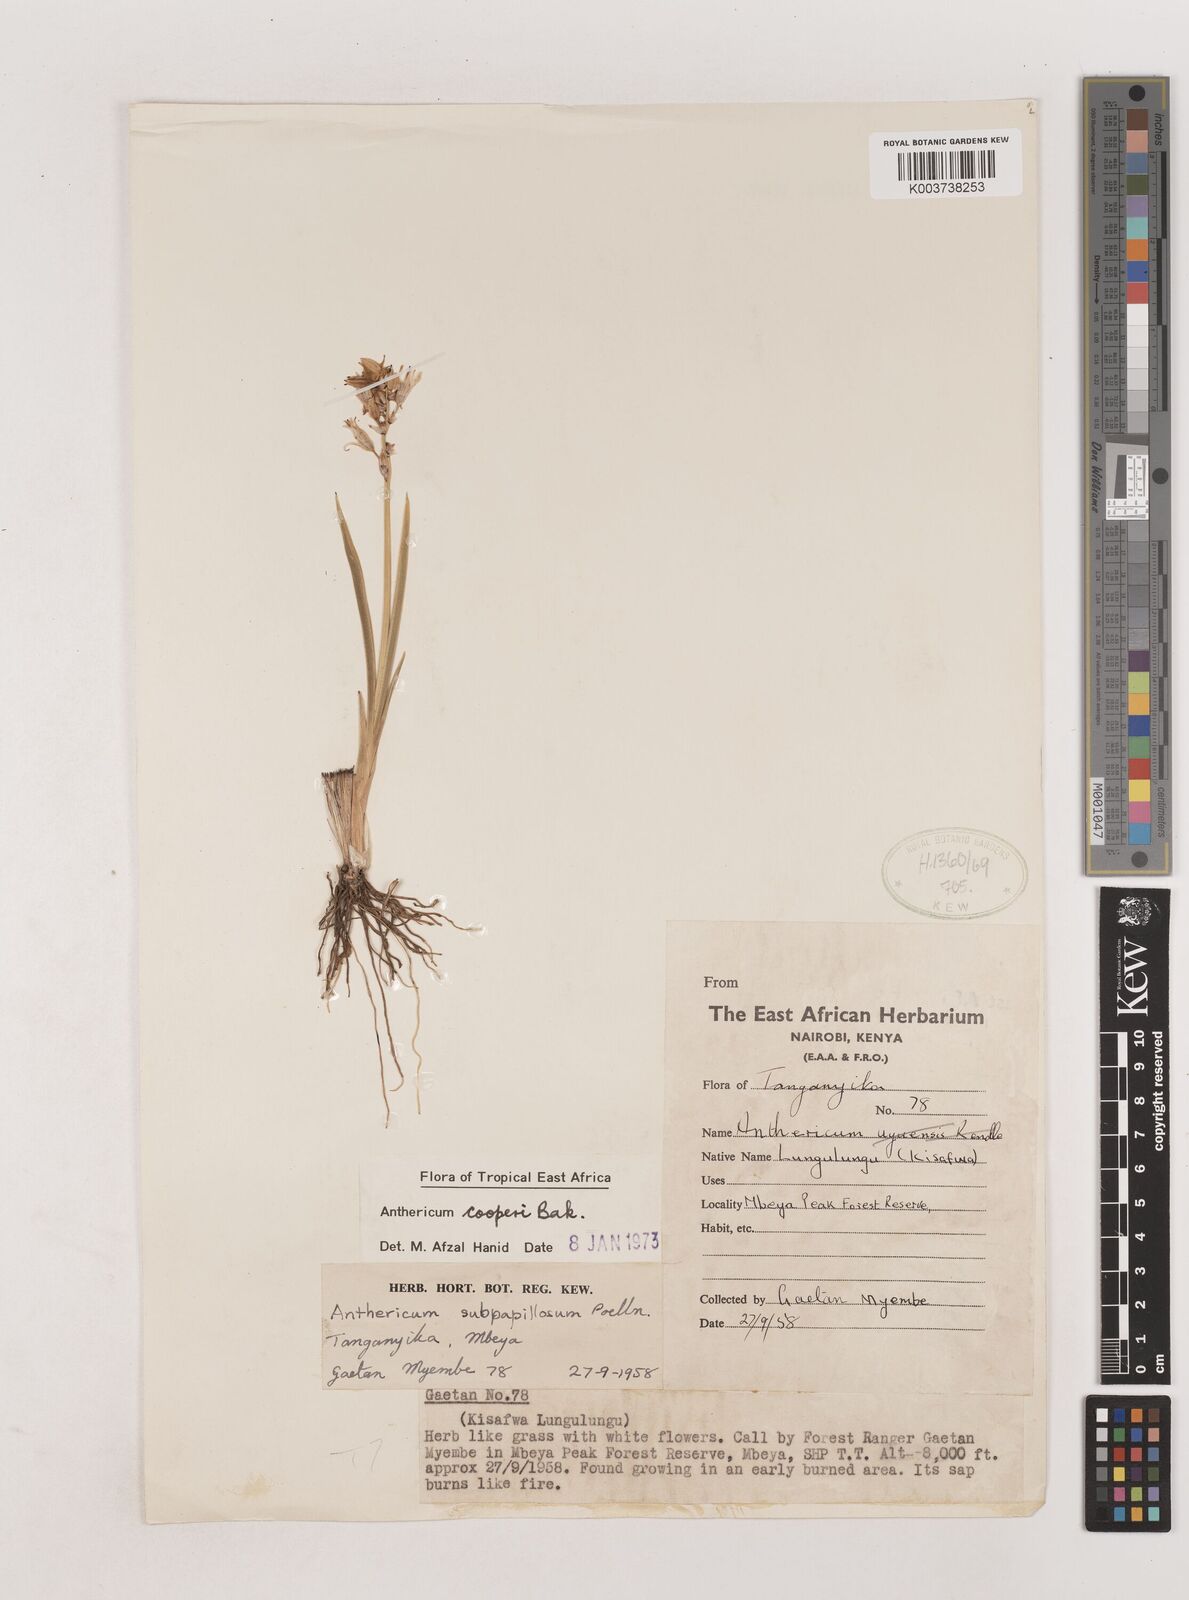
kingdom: Plantae
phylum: Tracheophyta
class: Liliopsida
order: Asparagales
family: Asparagaceae
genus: Chlorophytum
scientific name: Chlorophytum cameronii
